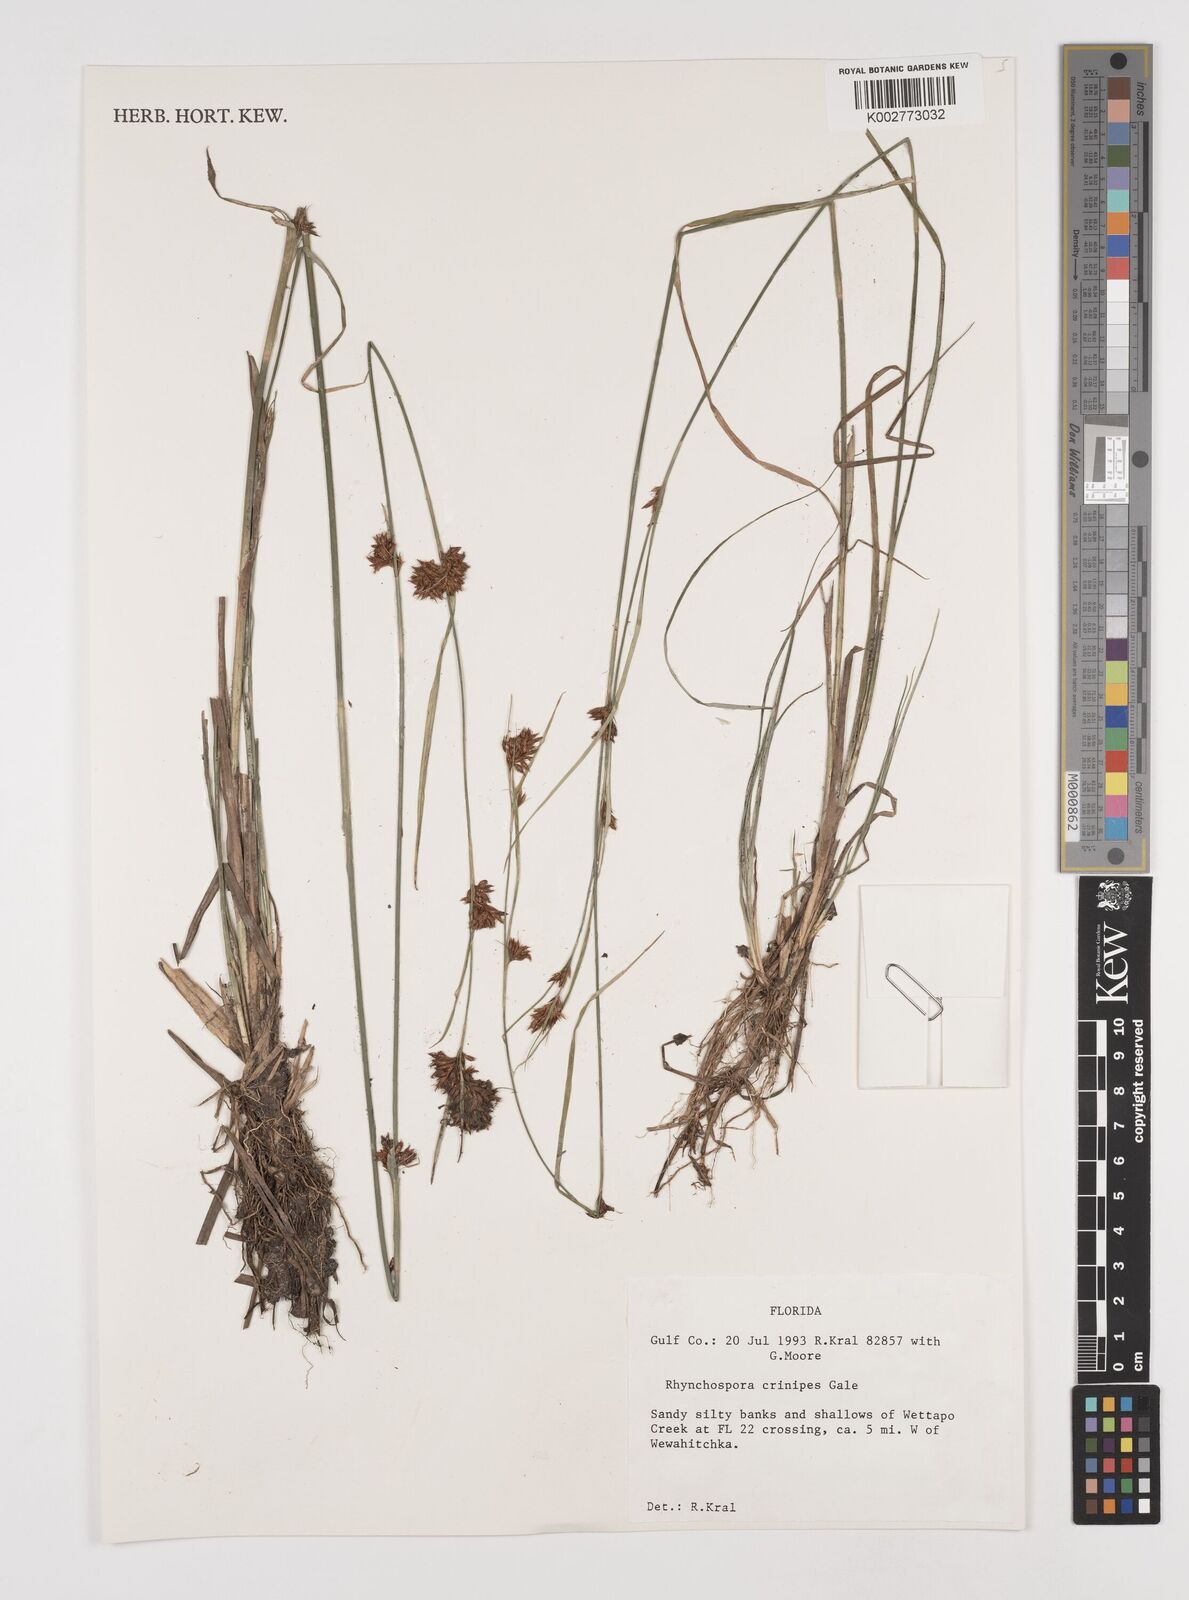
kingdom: Plantae
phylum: Tracheophyta
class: Liliopsida
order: Poales
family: Cyperaceae
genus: Rhynchospora
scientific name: Rhynchospora crinipes
